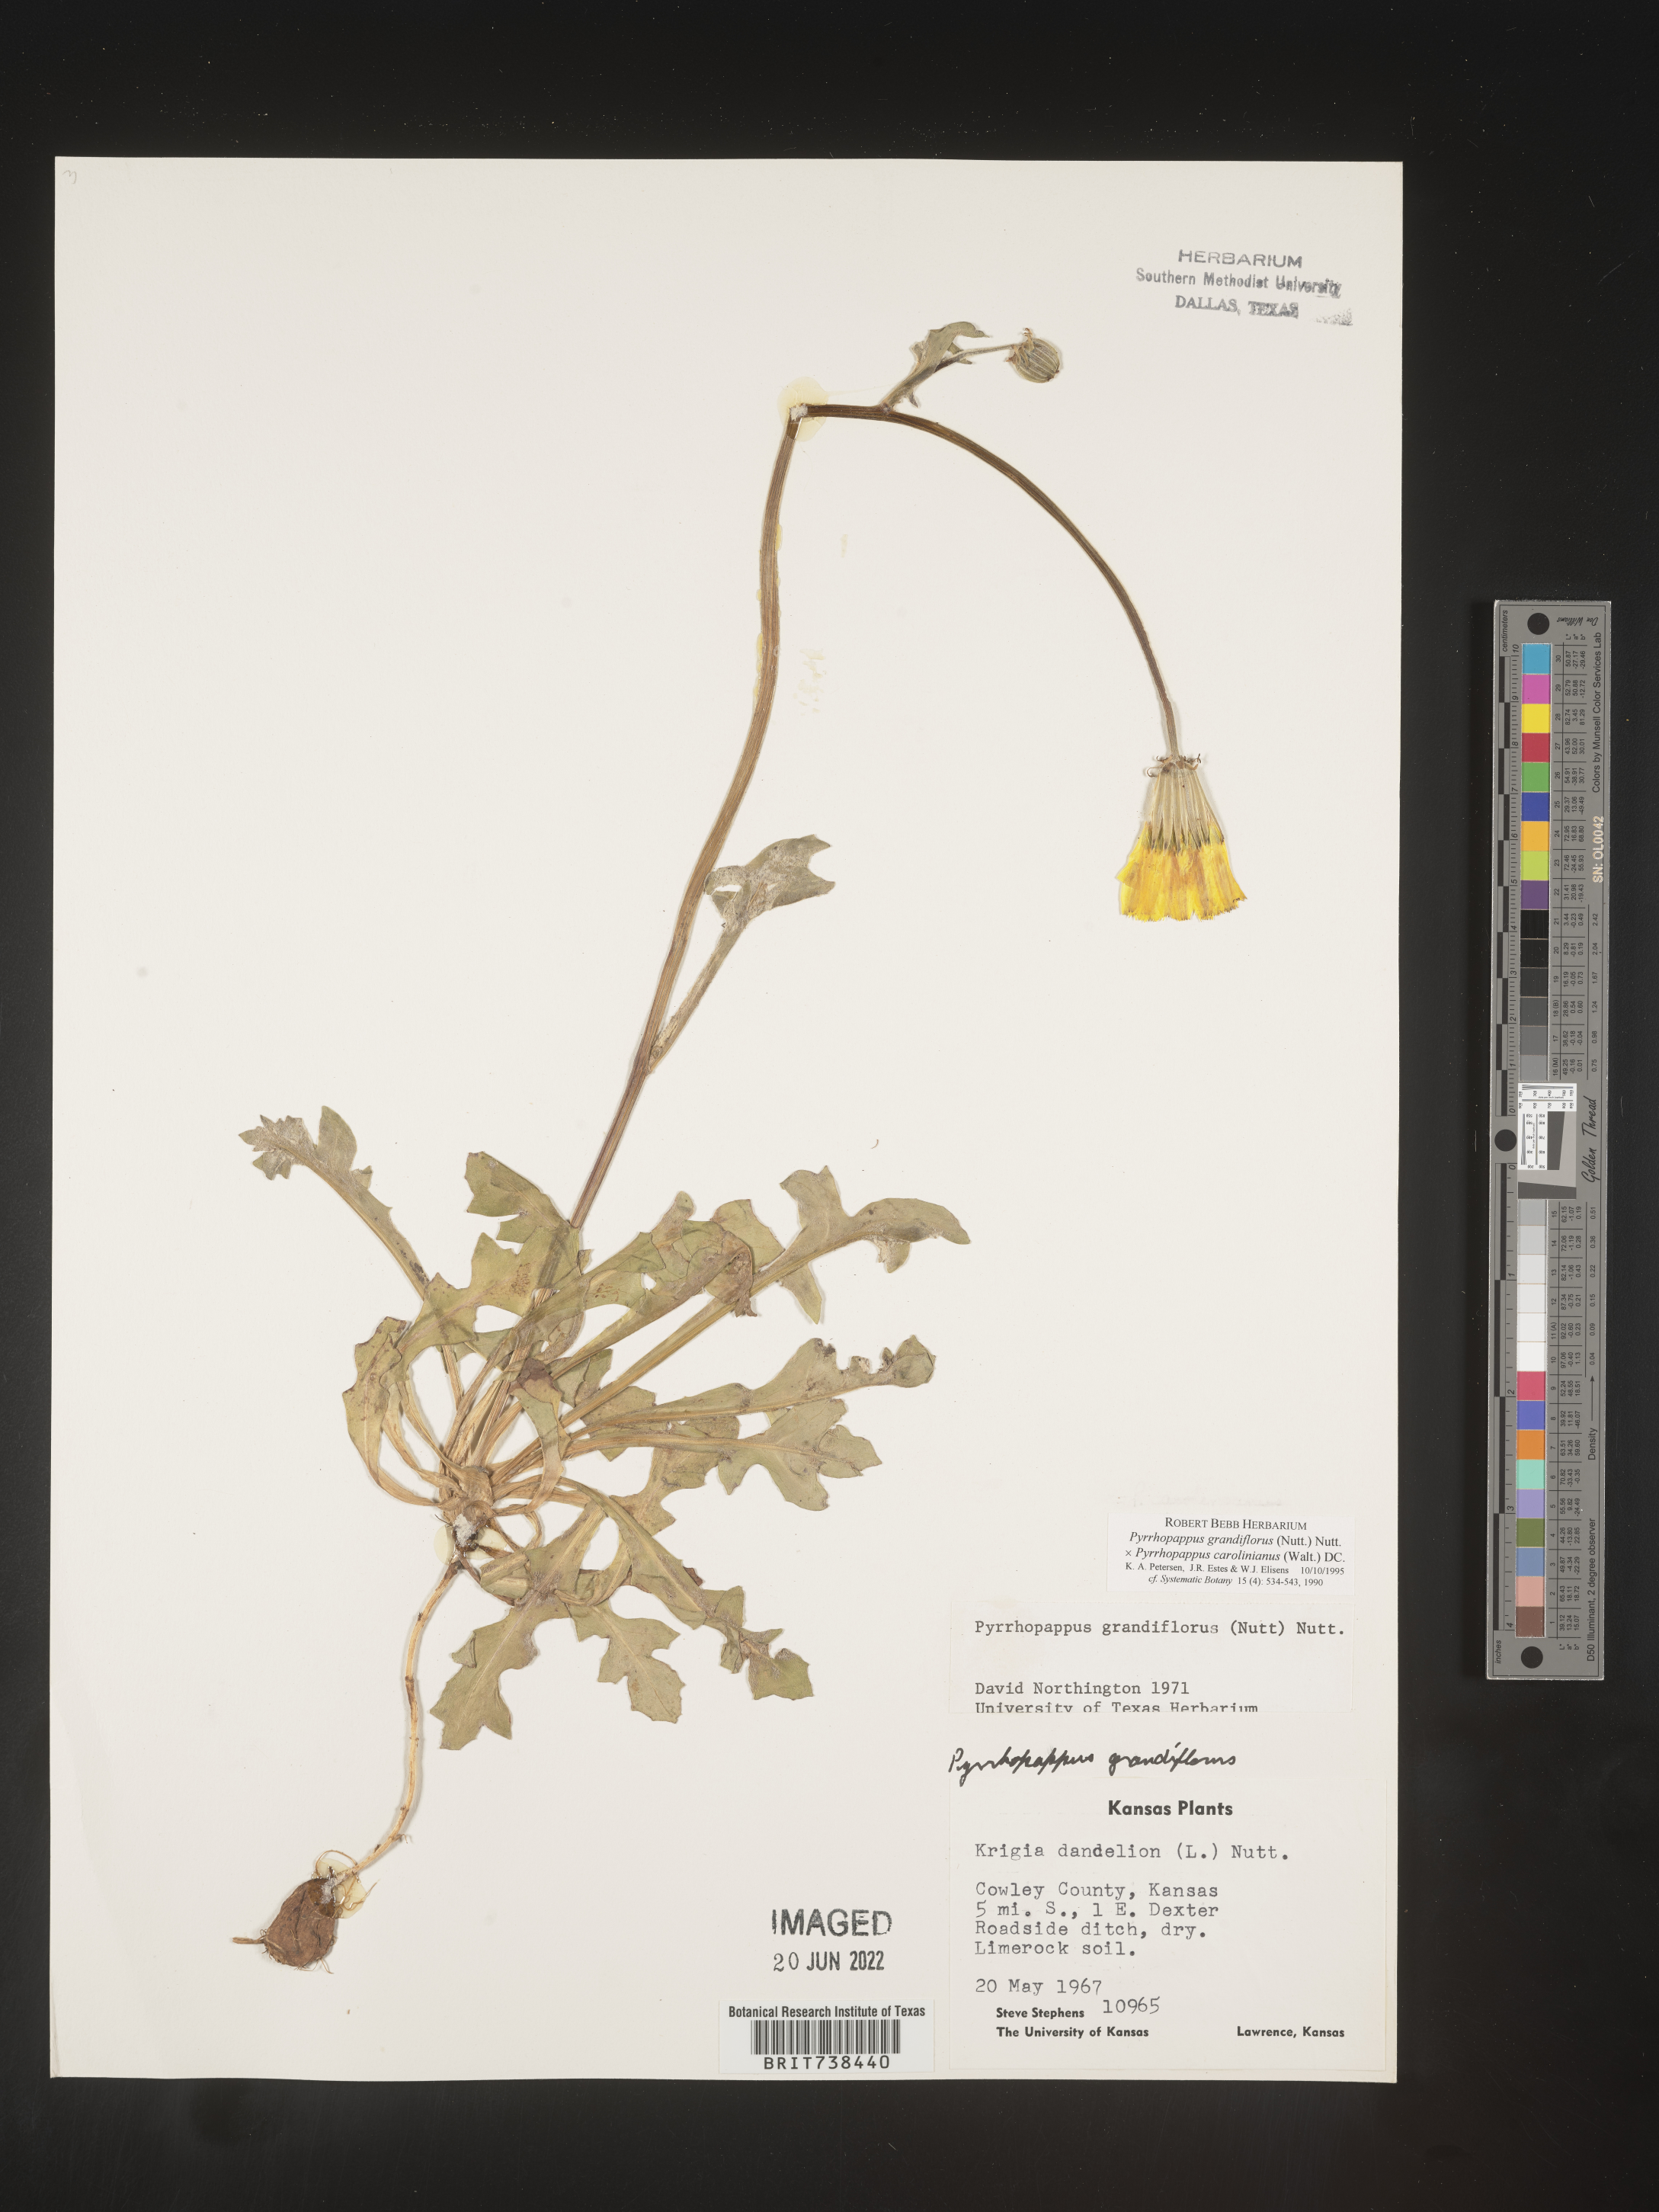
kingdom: Plantae
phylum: Tracheophyta
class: Magnoliopsida
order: Asterales
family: Asteraceae
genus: Pyrrhopappus
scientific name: Pyrrhopappus grandiflorus
